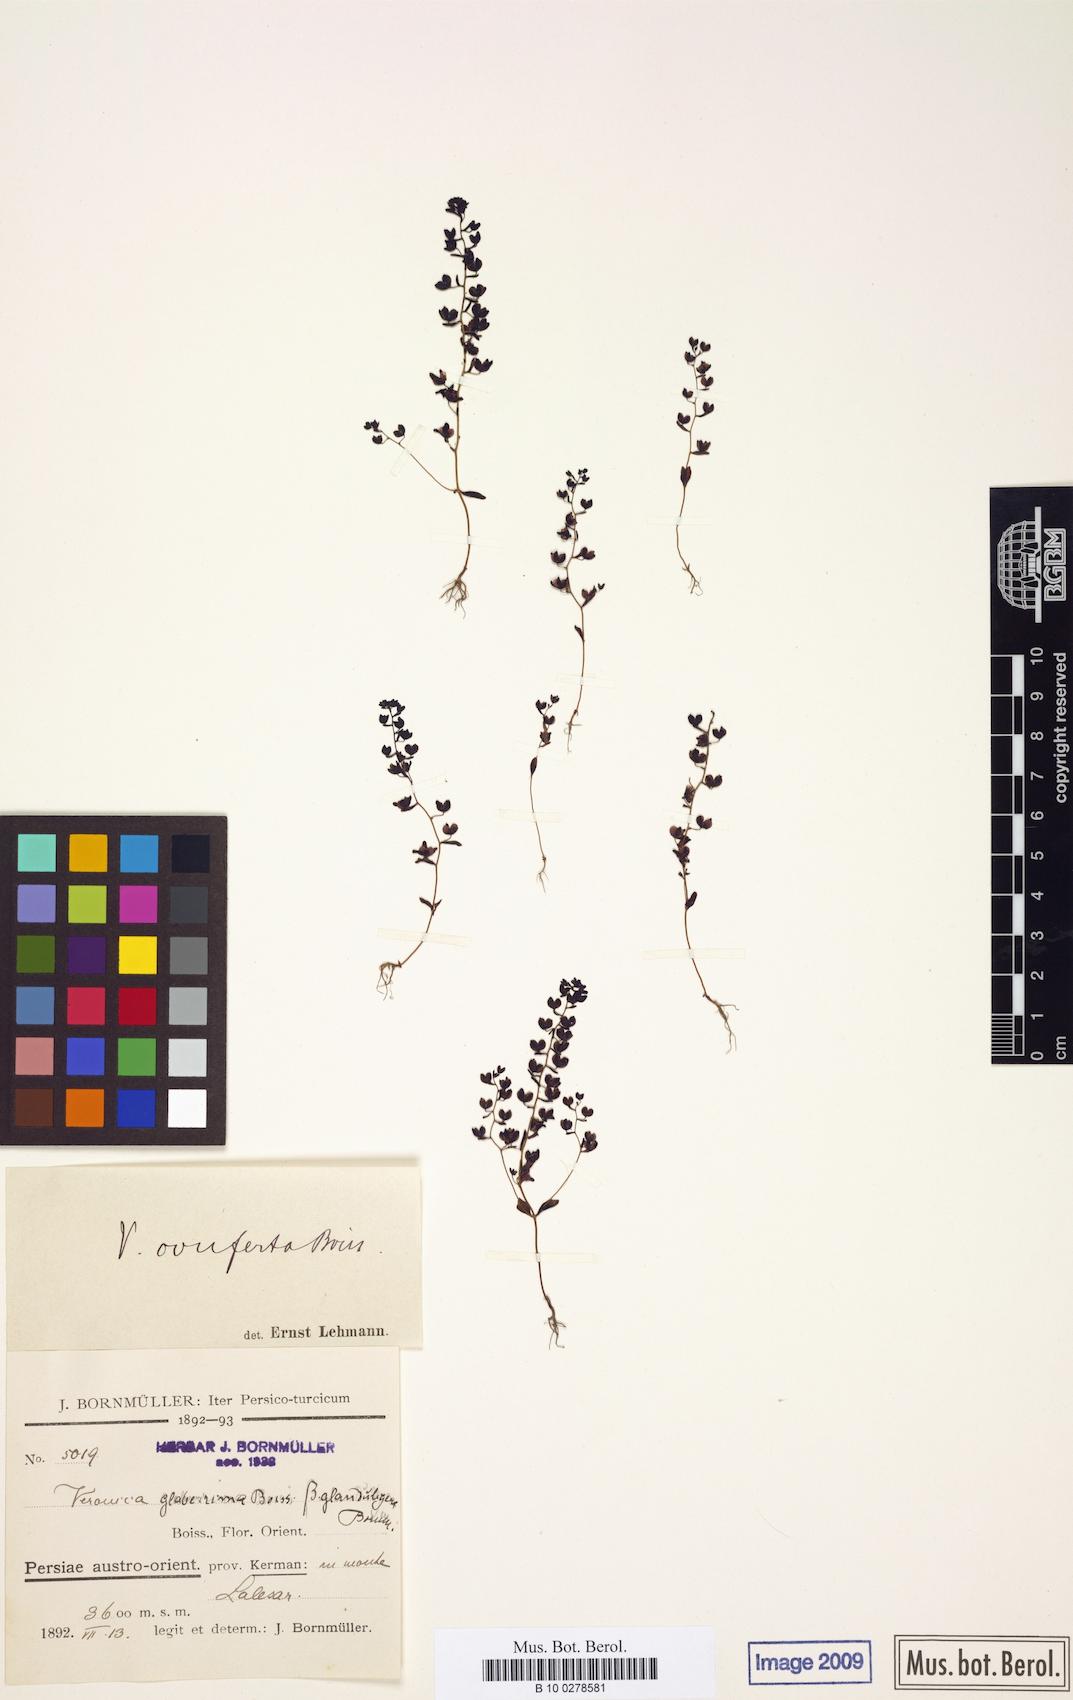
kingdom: Plantae
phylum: Tracheophyta
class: Magnoliopsida
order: Lamiales
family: Plantaginaceae
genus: Veronica
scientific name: Veronica pusilla
